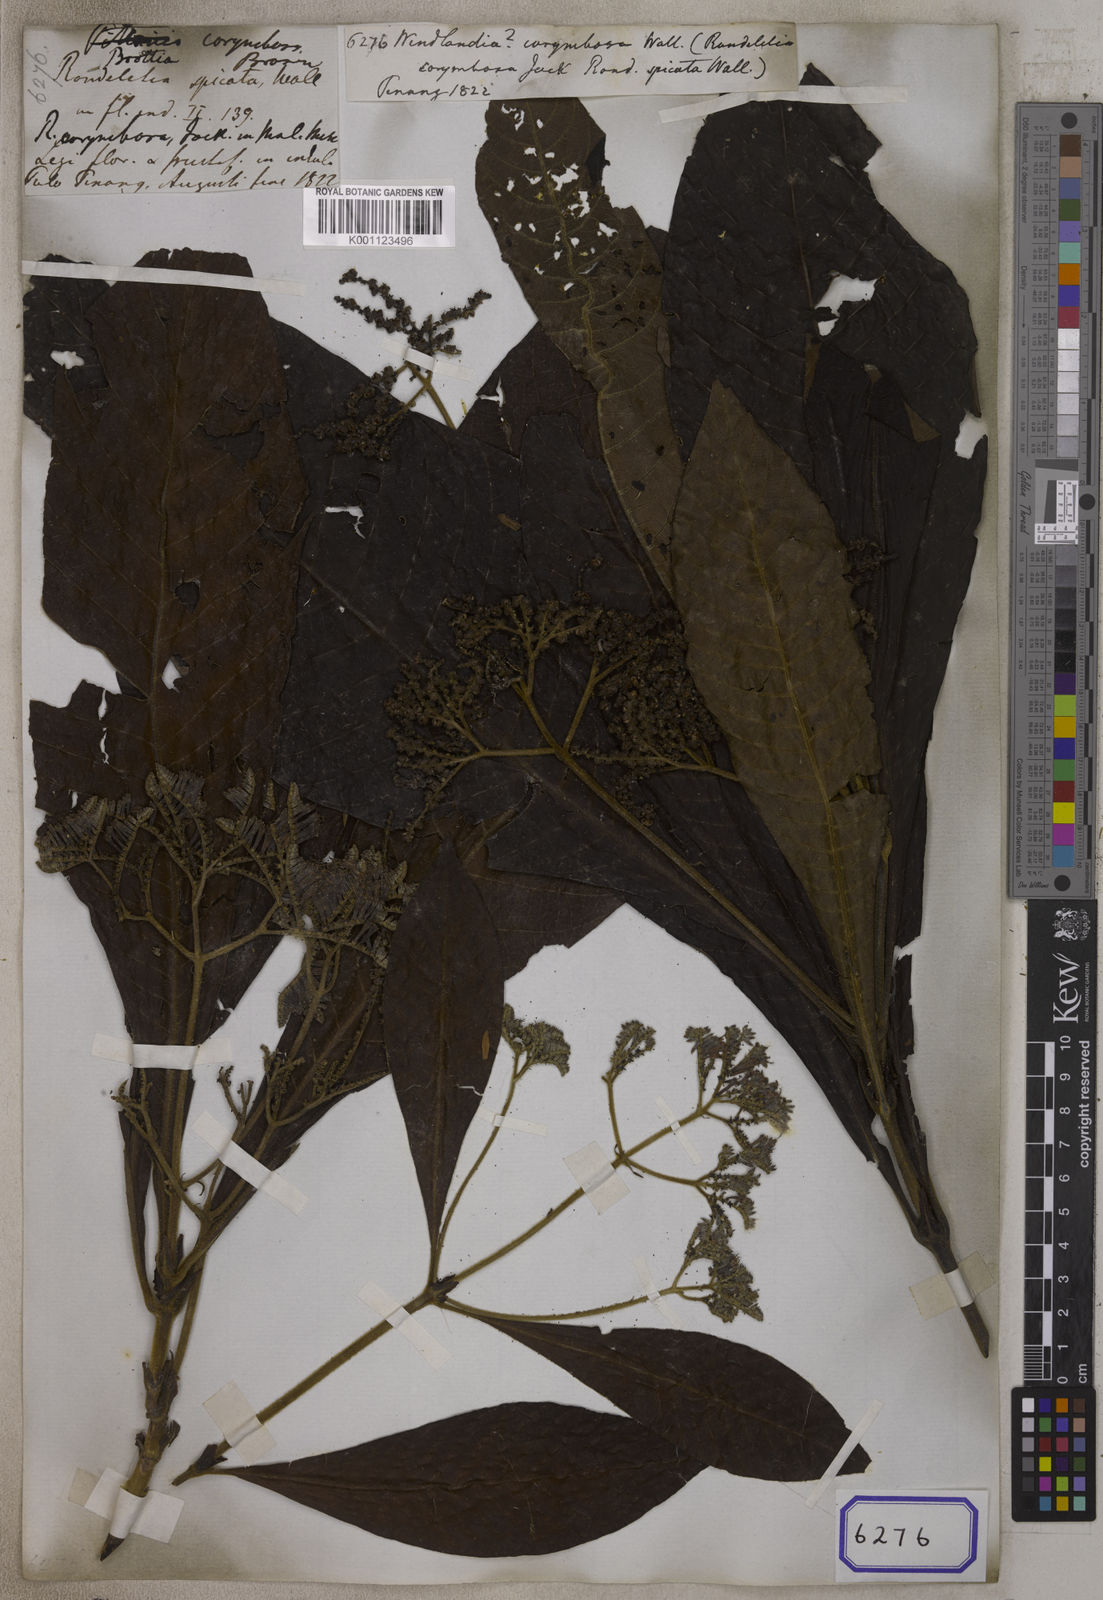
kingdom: Plantae
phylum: Tracheophyta
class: Magnoliopsida
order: Gentianales
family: Rubiaceae
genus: Wendlandia
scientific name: Wendlandia
